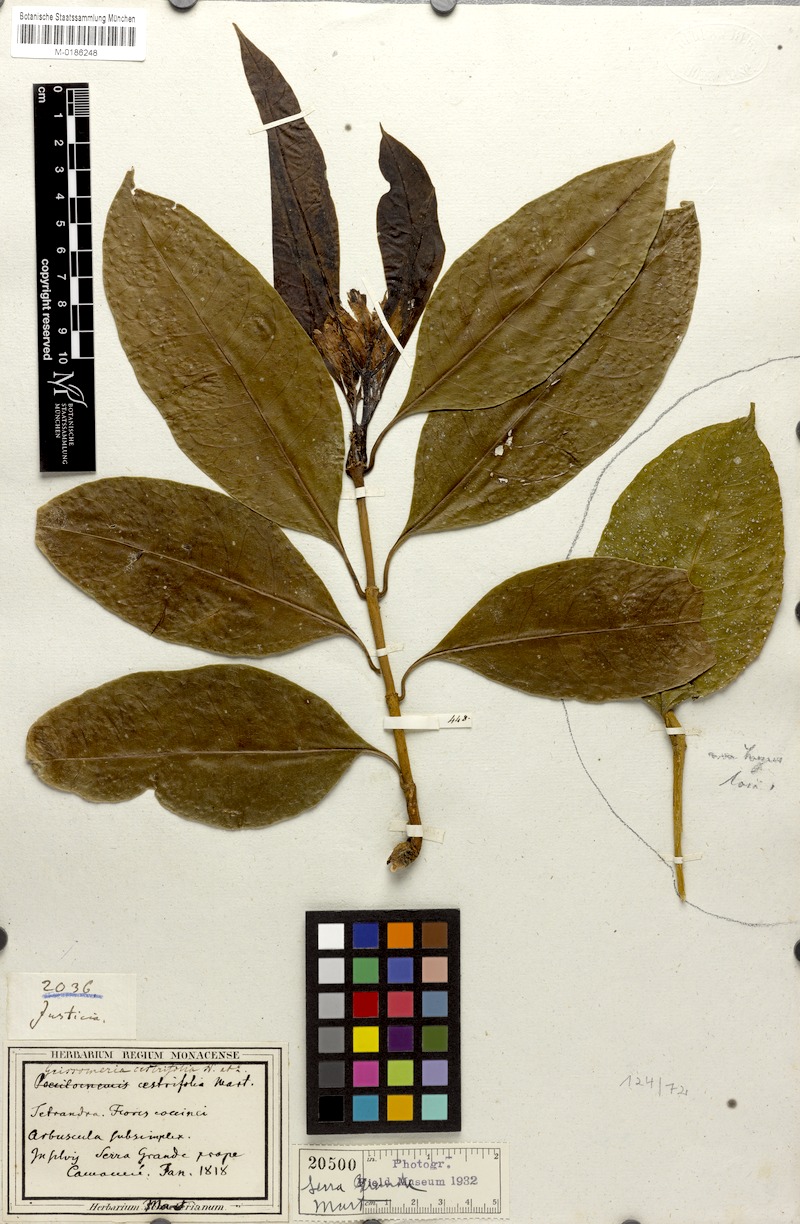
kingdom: Plantae
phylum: Tracheophyta
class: Magnoliopsida
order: Lamiales
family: Acanthaceae
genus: Aphelandra
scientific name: Aphelandra nitida
